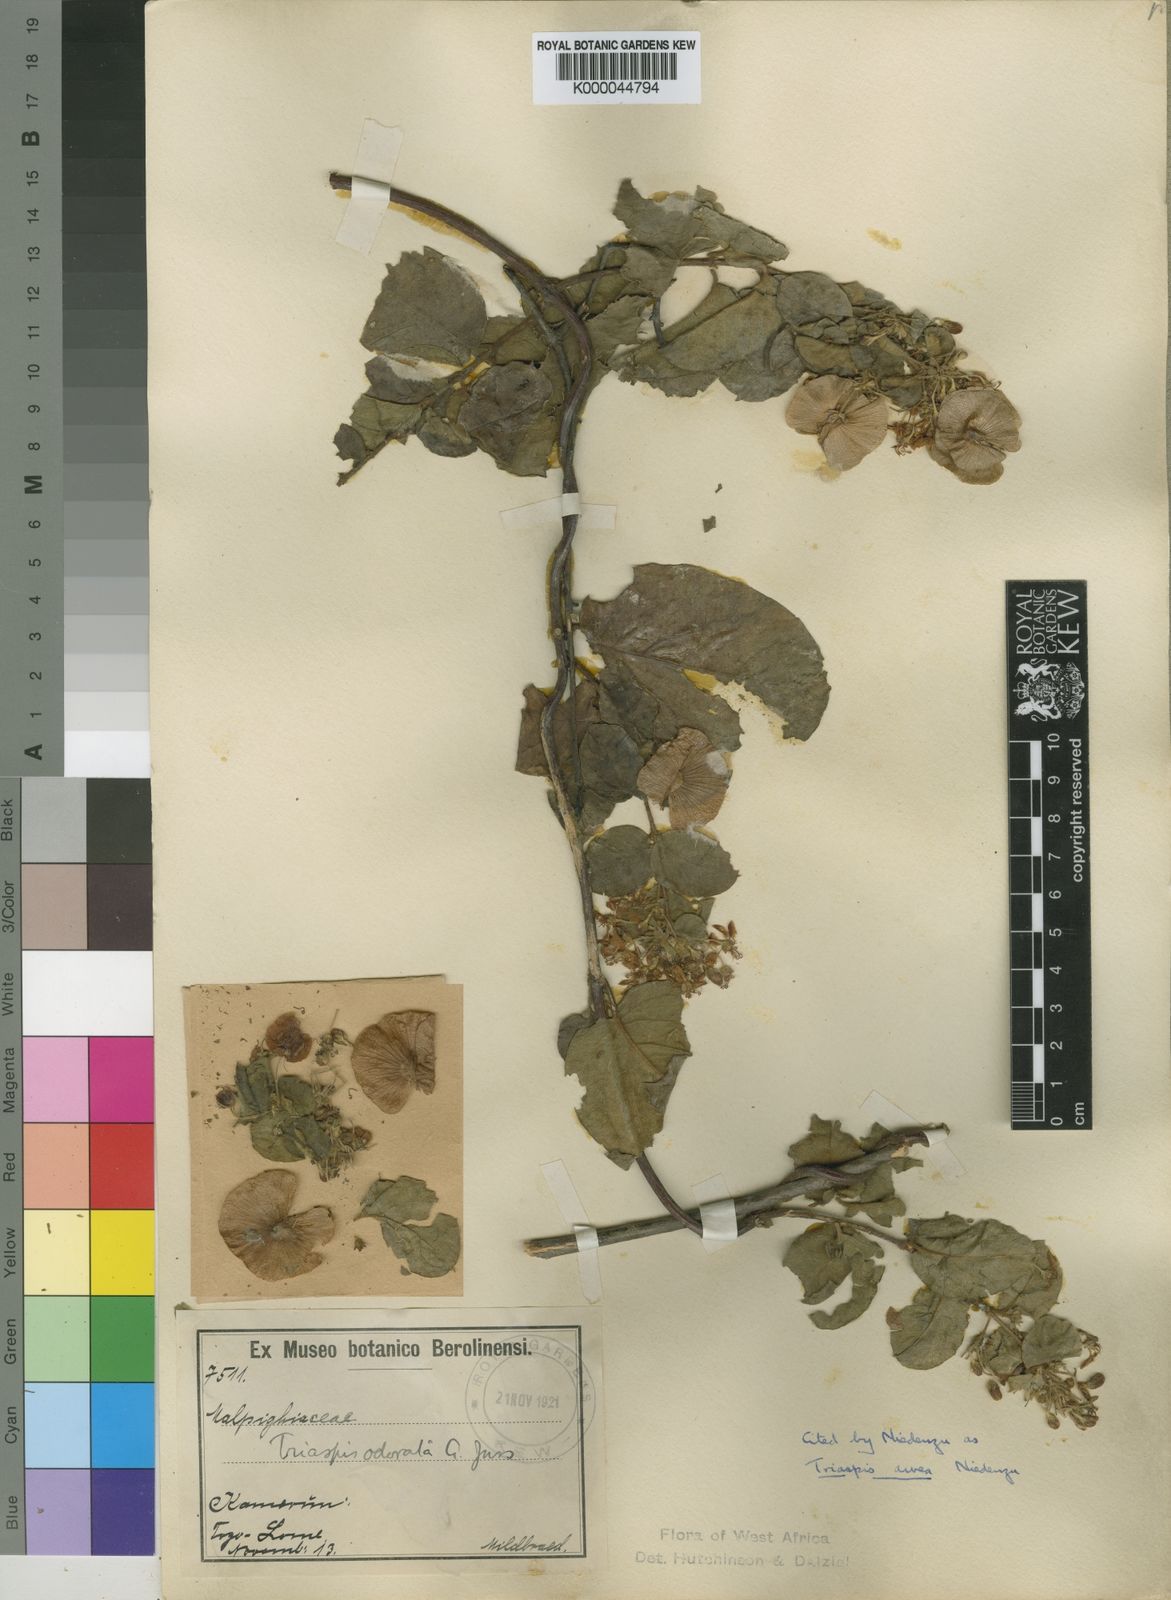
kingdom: Plantae
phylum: Tracheophyta
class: Magnoliopsida
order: Malpighiales
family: Malpighiaceae
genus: Triaspis
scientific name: Triaspis odorata
